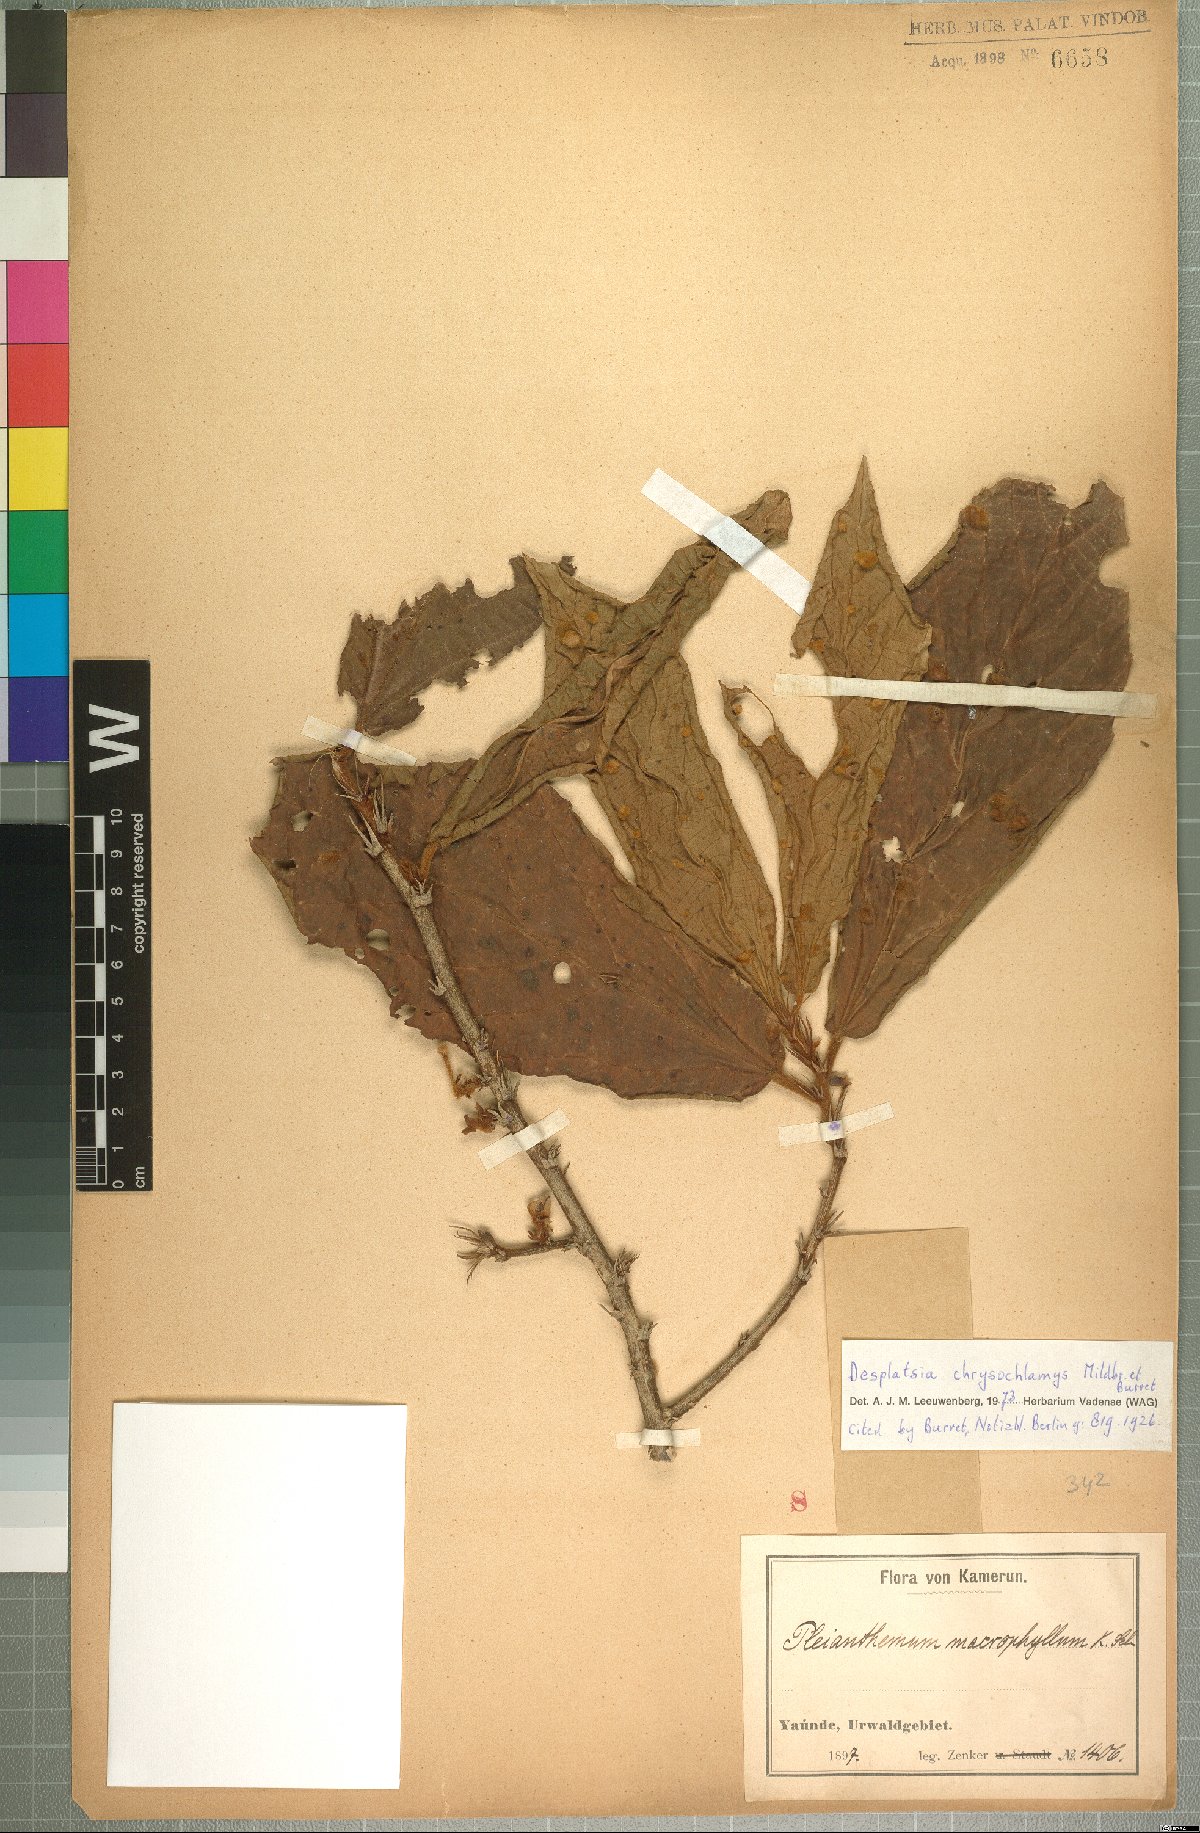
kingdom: Plantae
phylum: Tracheophyta
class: Magnoliopsida
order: Malvales
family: Malvaceae
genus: Desplatsia
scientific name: Desplatsia chrysochlamys
